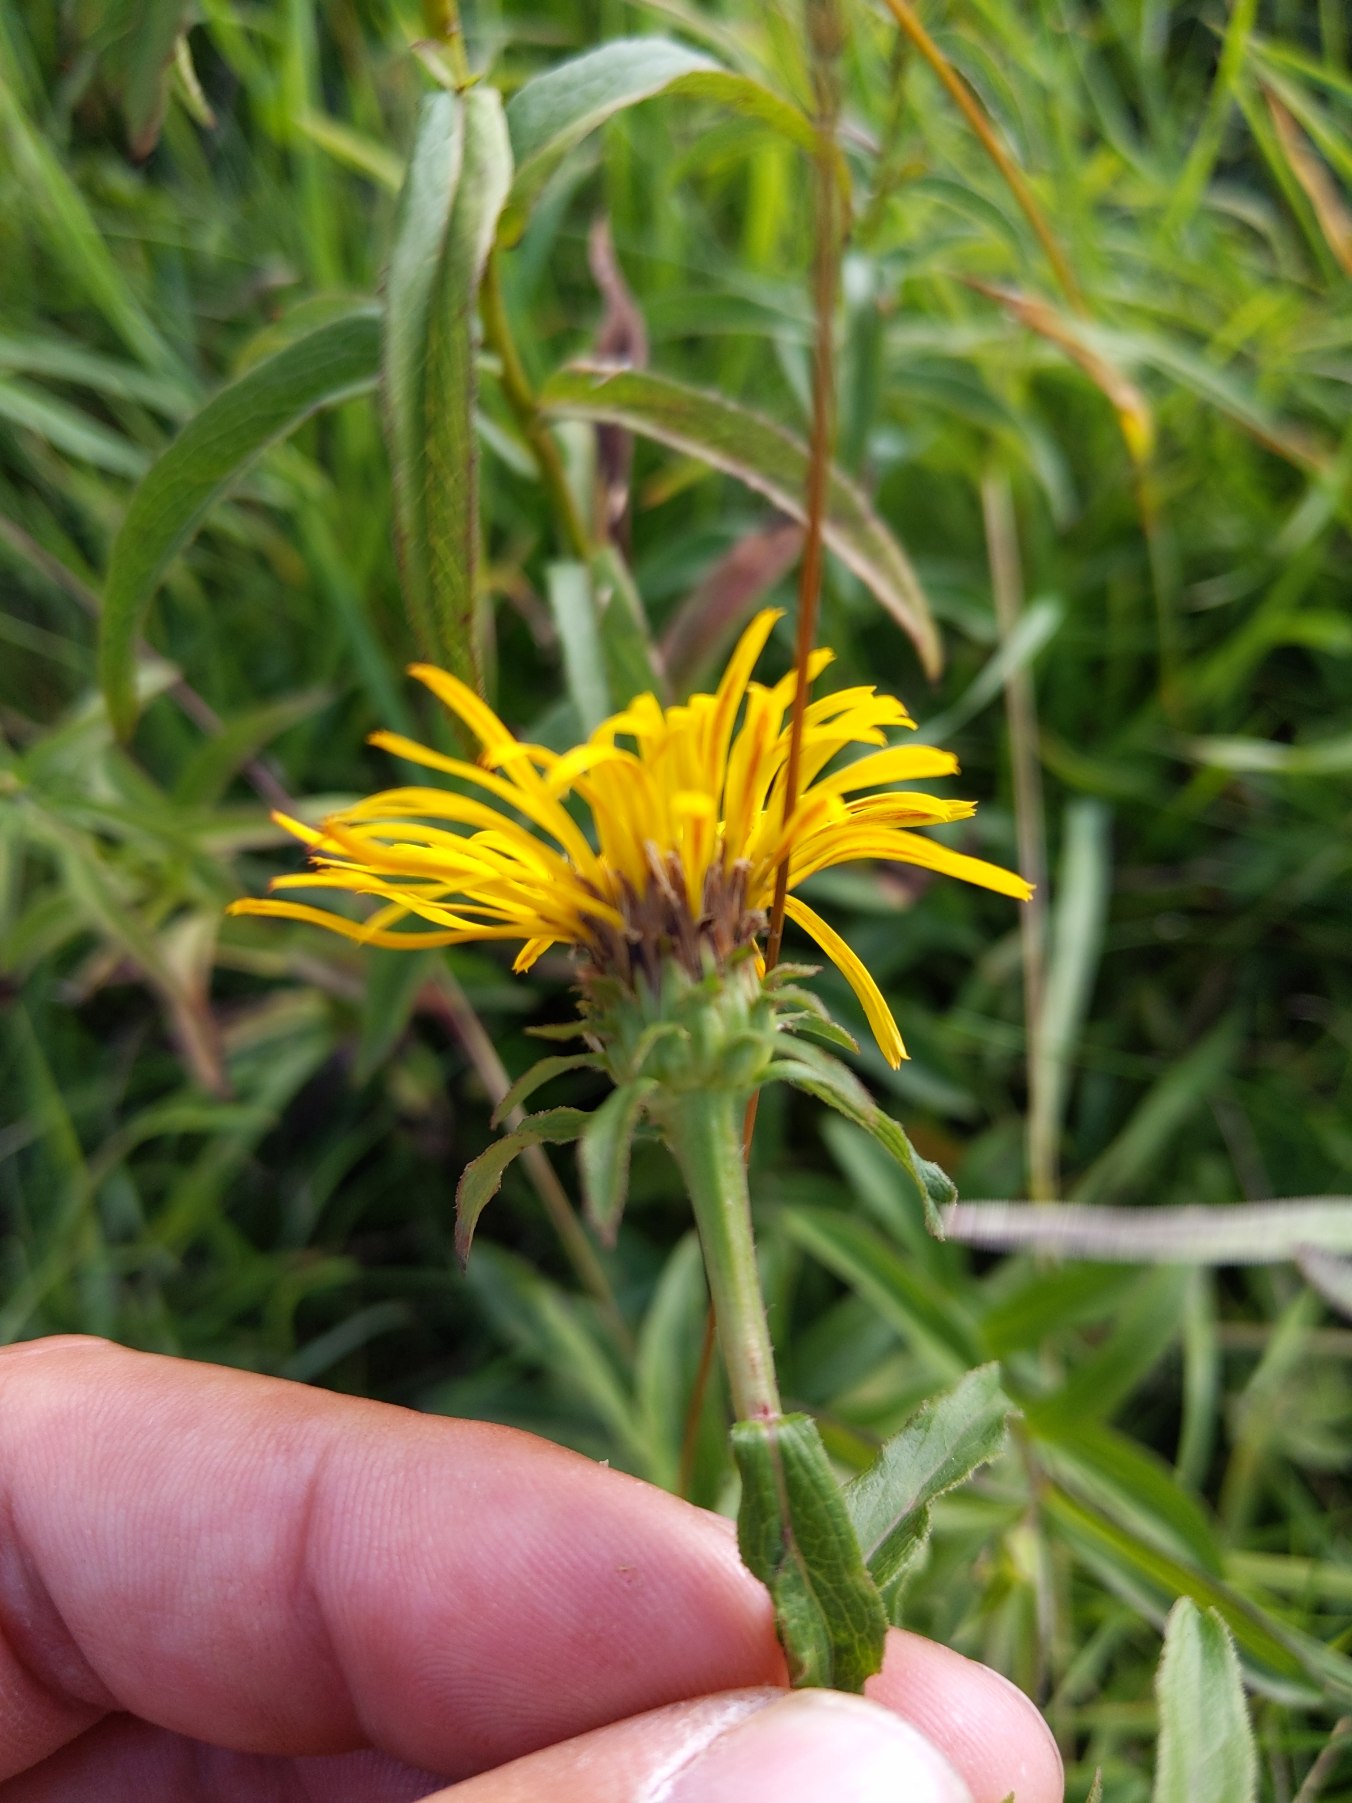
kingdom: Plantae
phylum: Tracheophyta
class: Magnoliopsida
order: Asterales
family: Asteraceae
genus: Pentanema
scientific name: Pentanema salicinum
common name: Pile-alant
